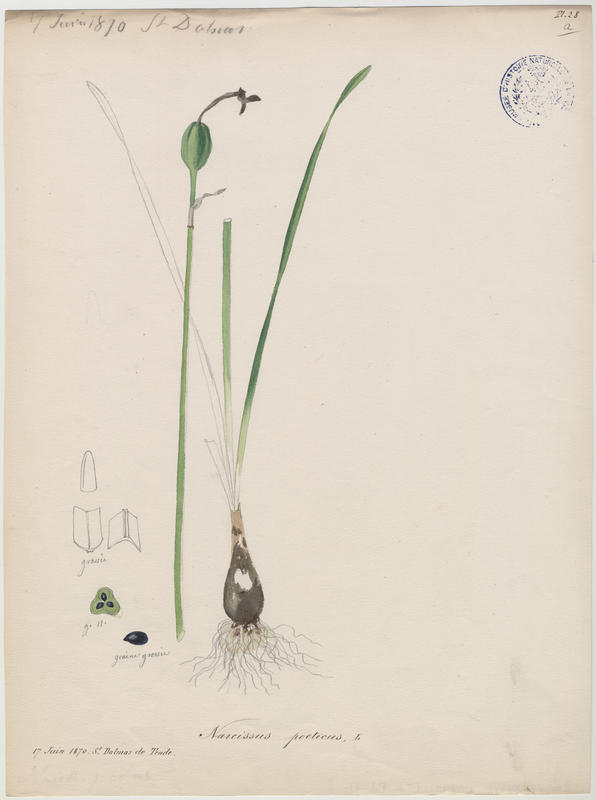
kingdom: Plantae
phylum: Tracheophyta
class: Liliopsida
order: Asparagales
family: Amaryllidaceae
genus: Narcissus
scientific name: Narcissus poeticus
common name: Pheasant's-eye daffodil
